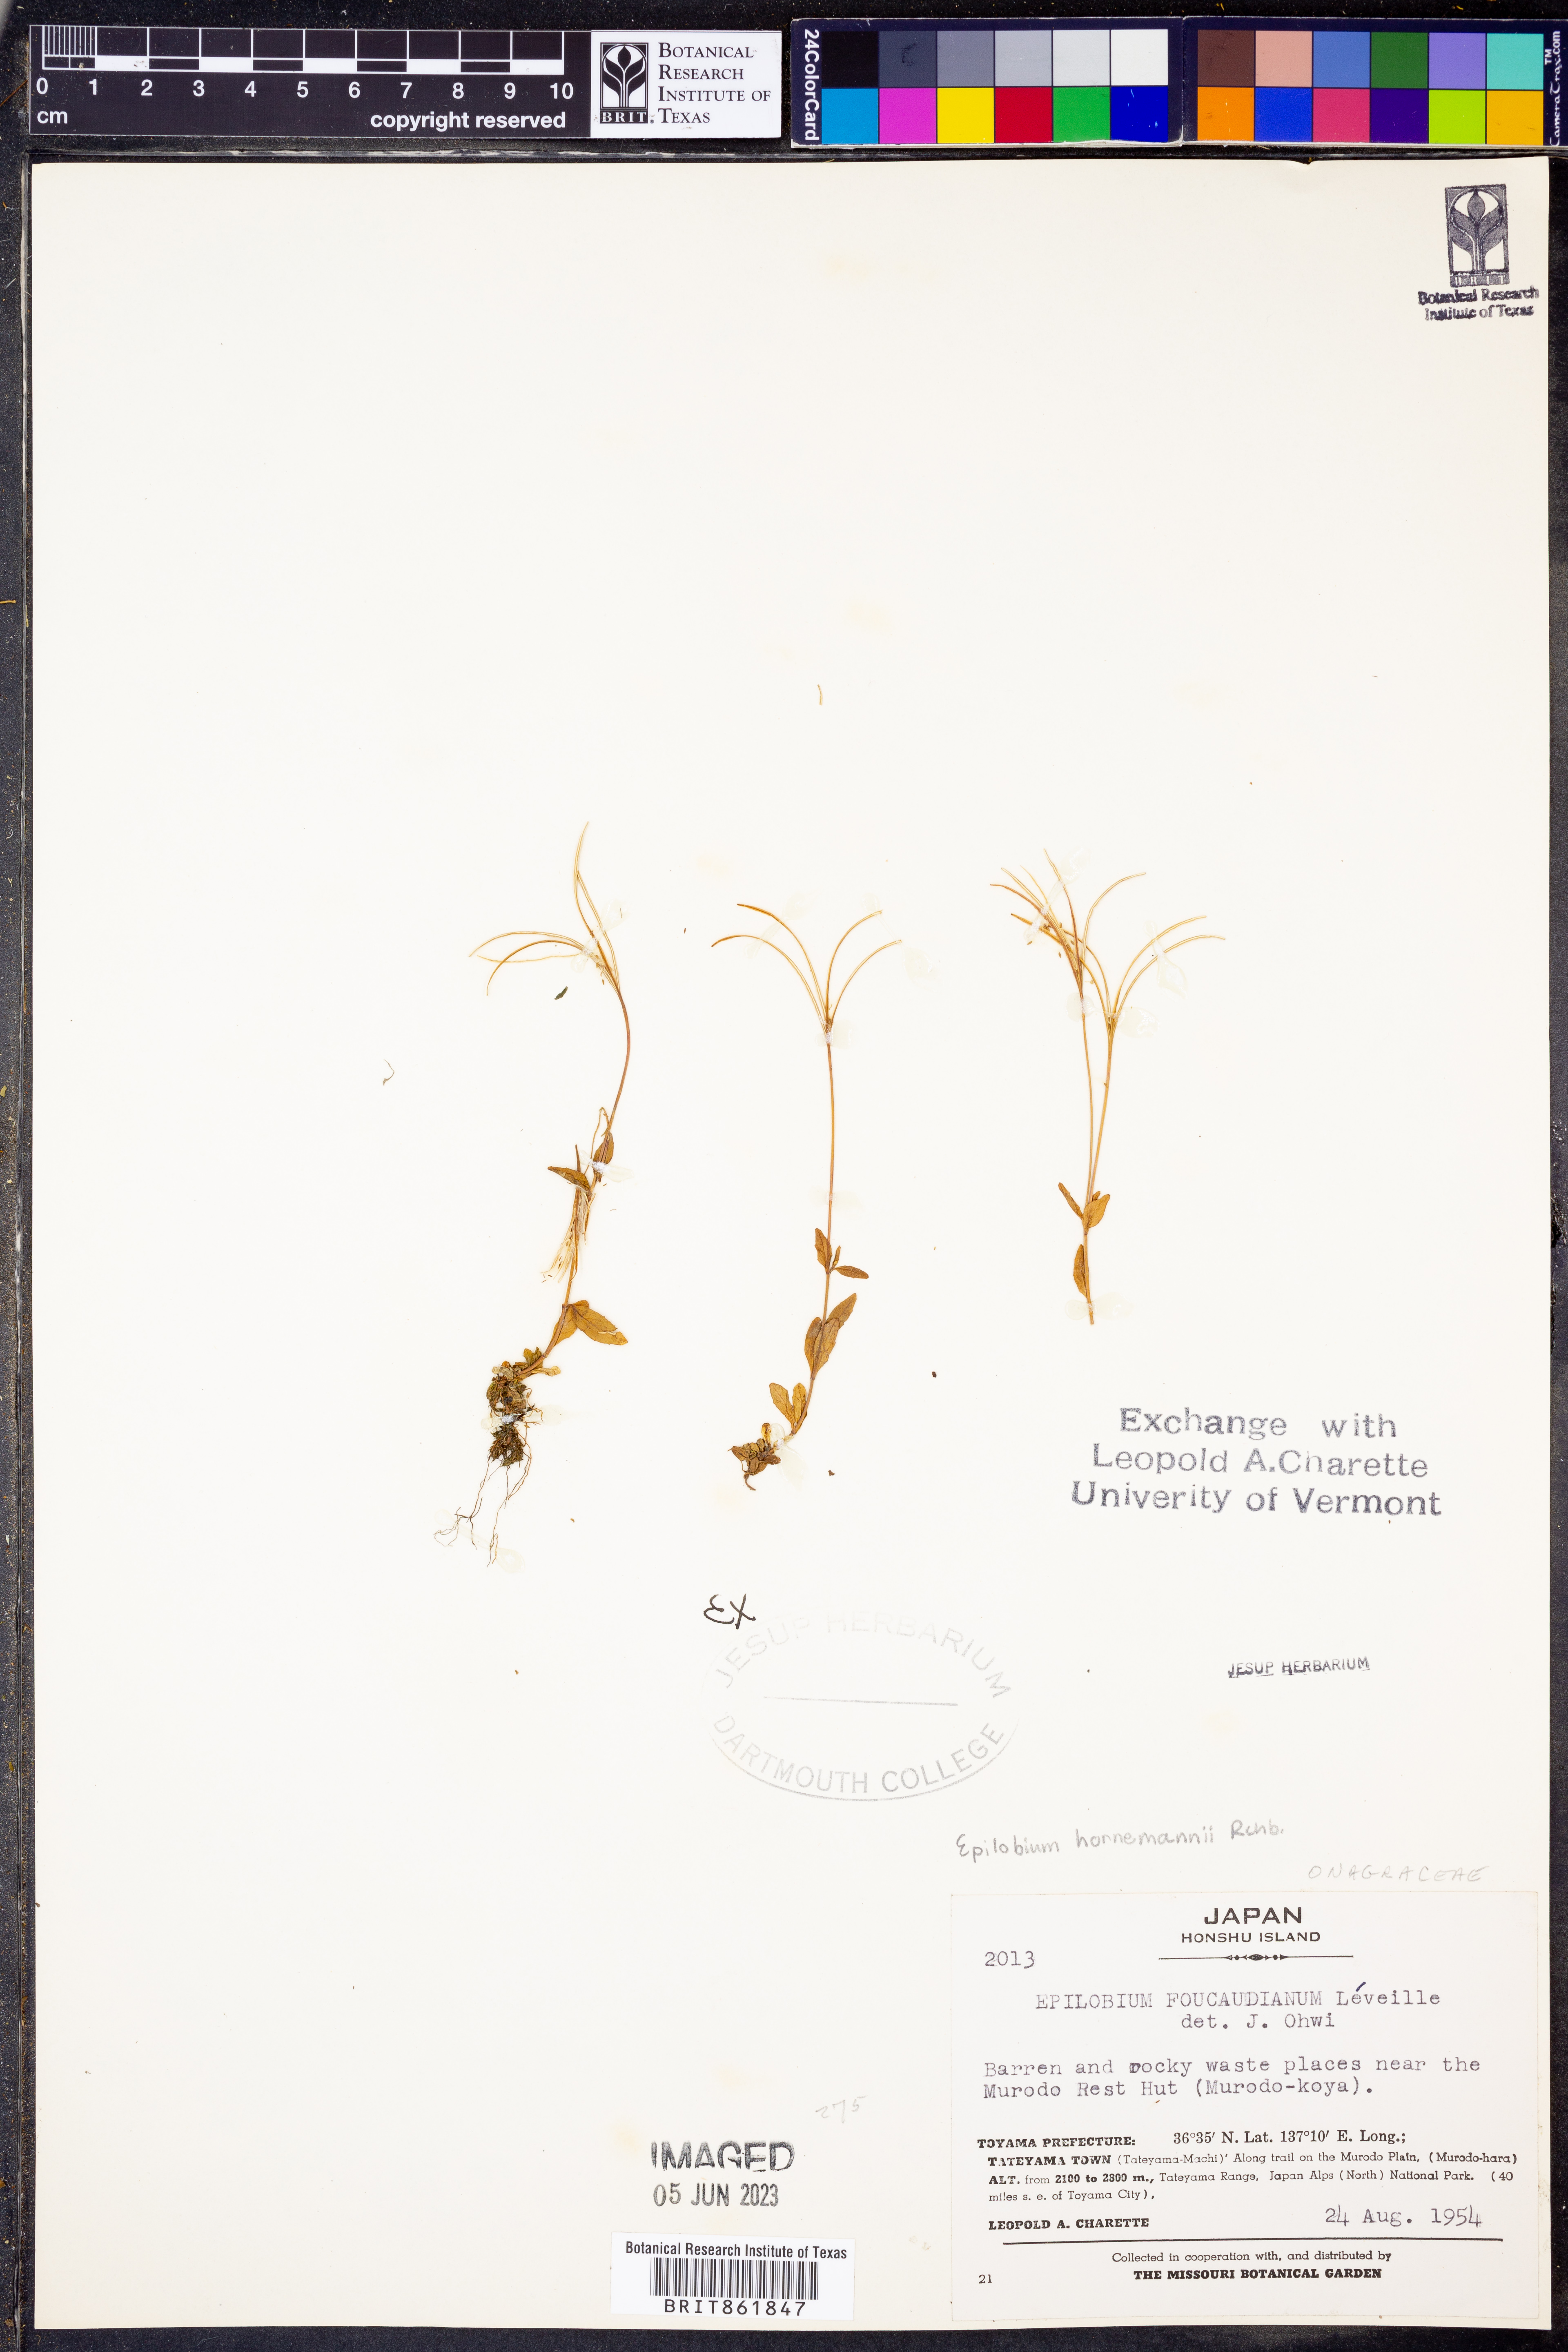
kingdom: Plantae
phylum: Tracheophyta
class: Magnoliopsida
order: Myrtales
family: Onagraceae
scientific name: Onagraceae
